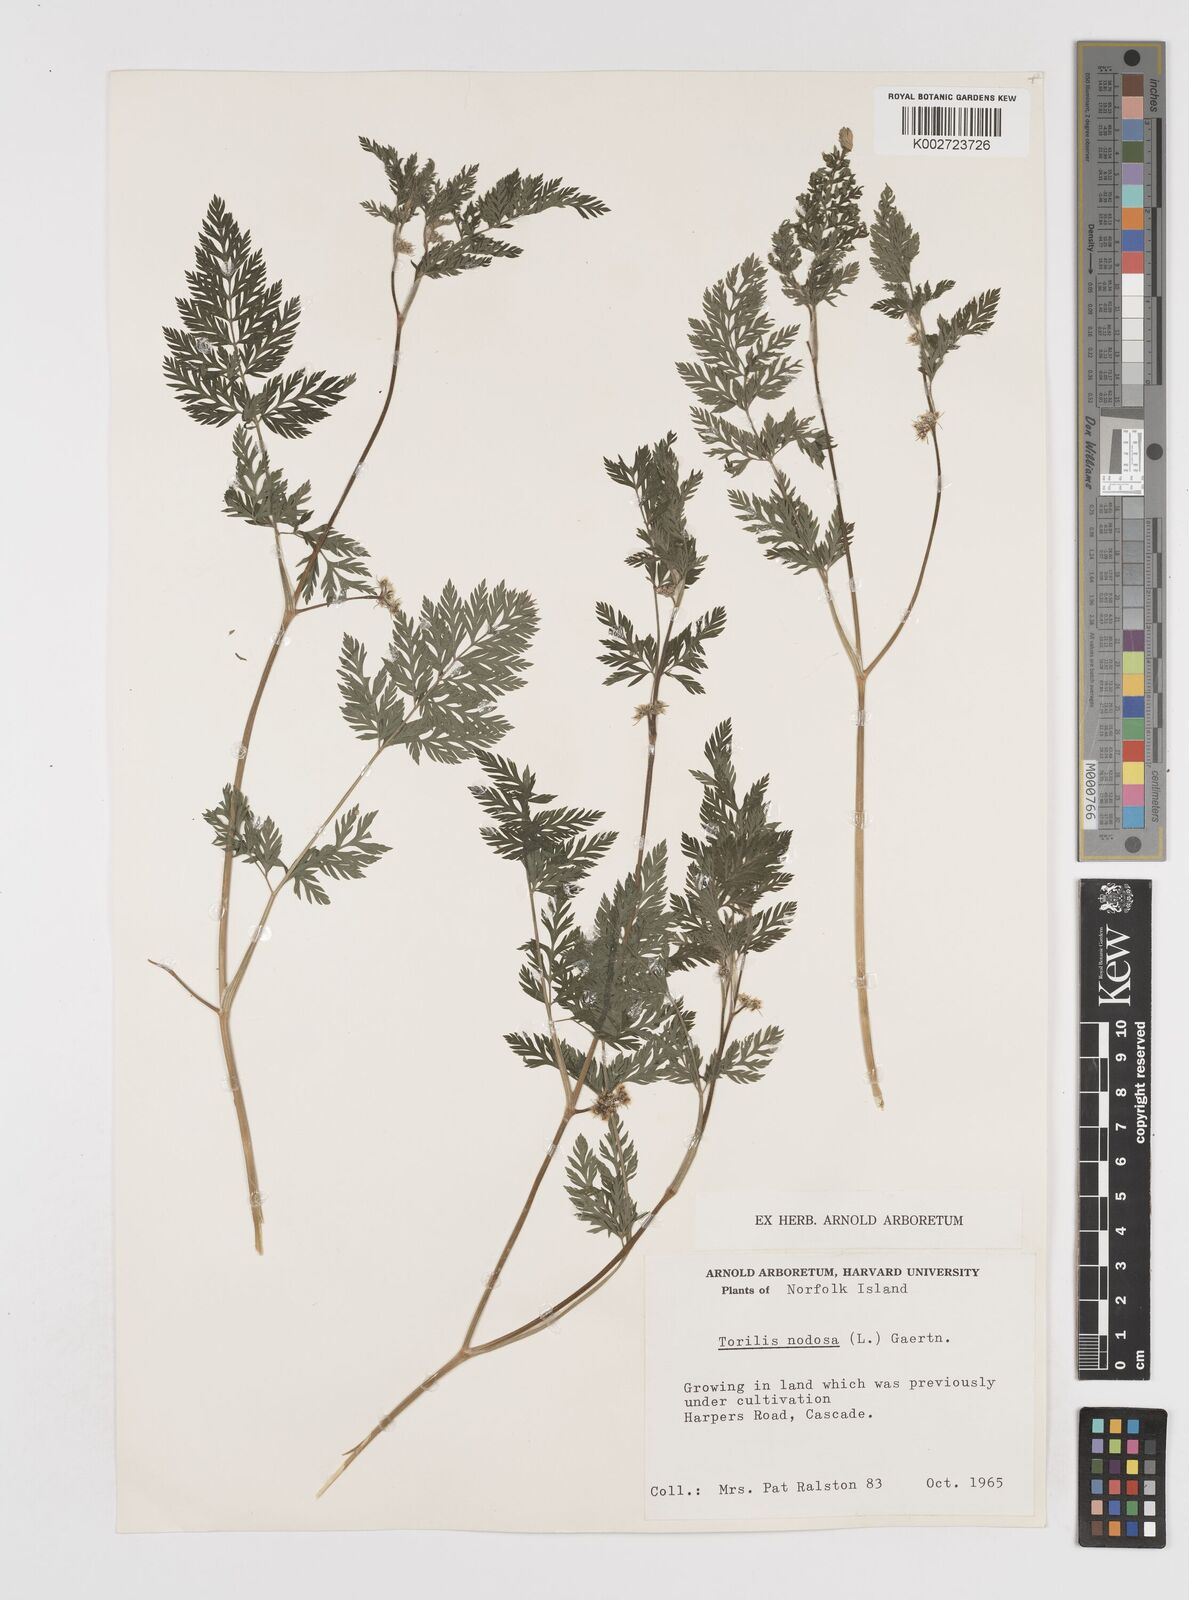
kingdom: Plantae
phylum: Tracheophyta
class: Magnoliopsida
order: Apiales
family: Apiaceae
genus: Torilis
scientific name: Torilis nodosa
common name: Knotted hedge-parsley
